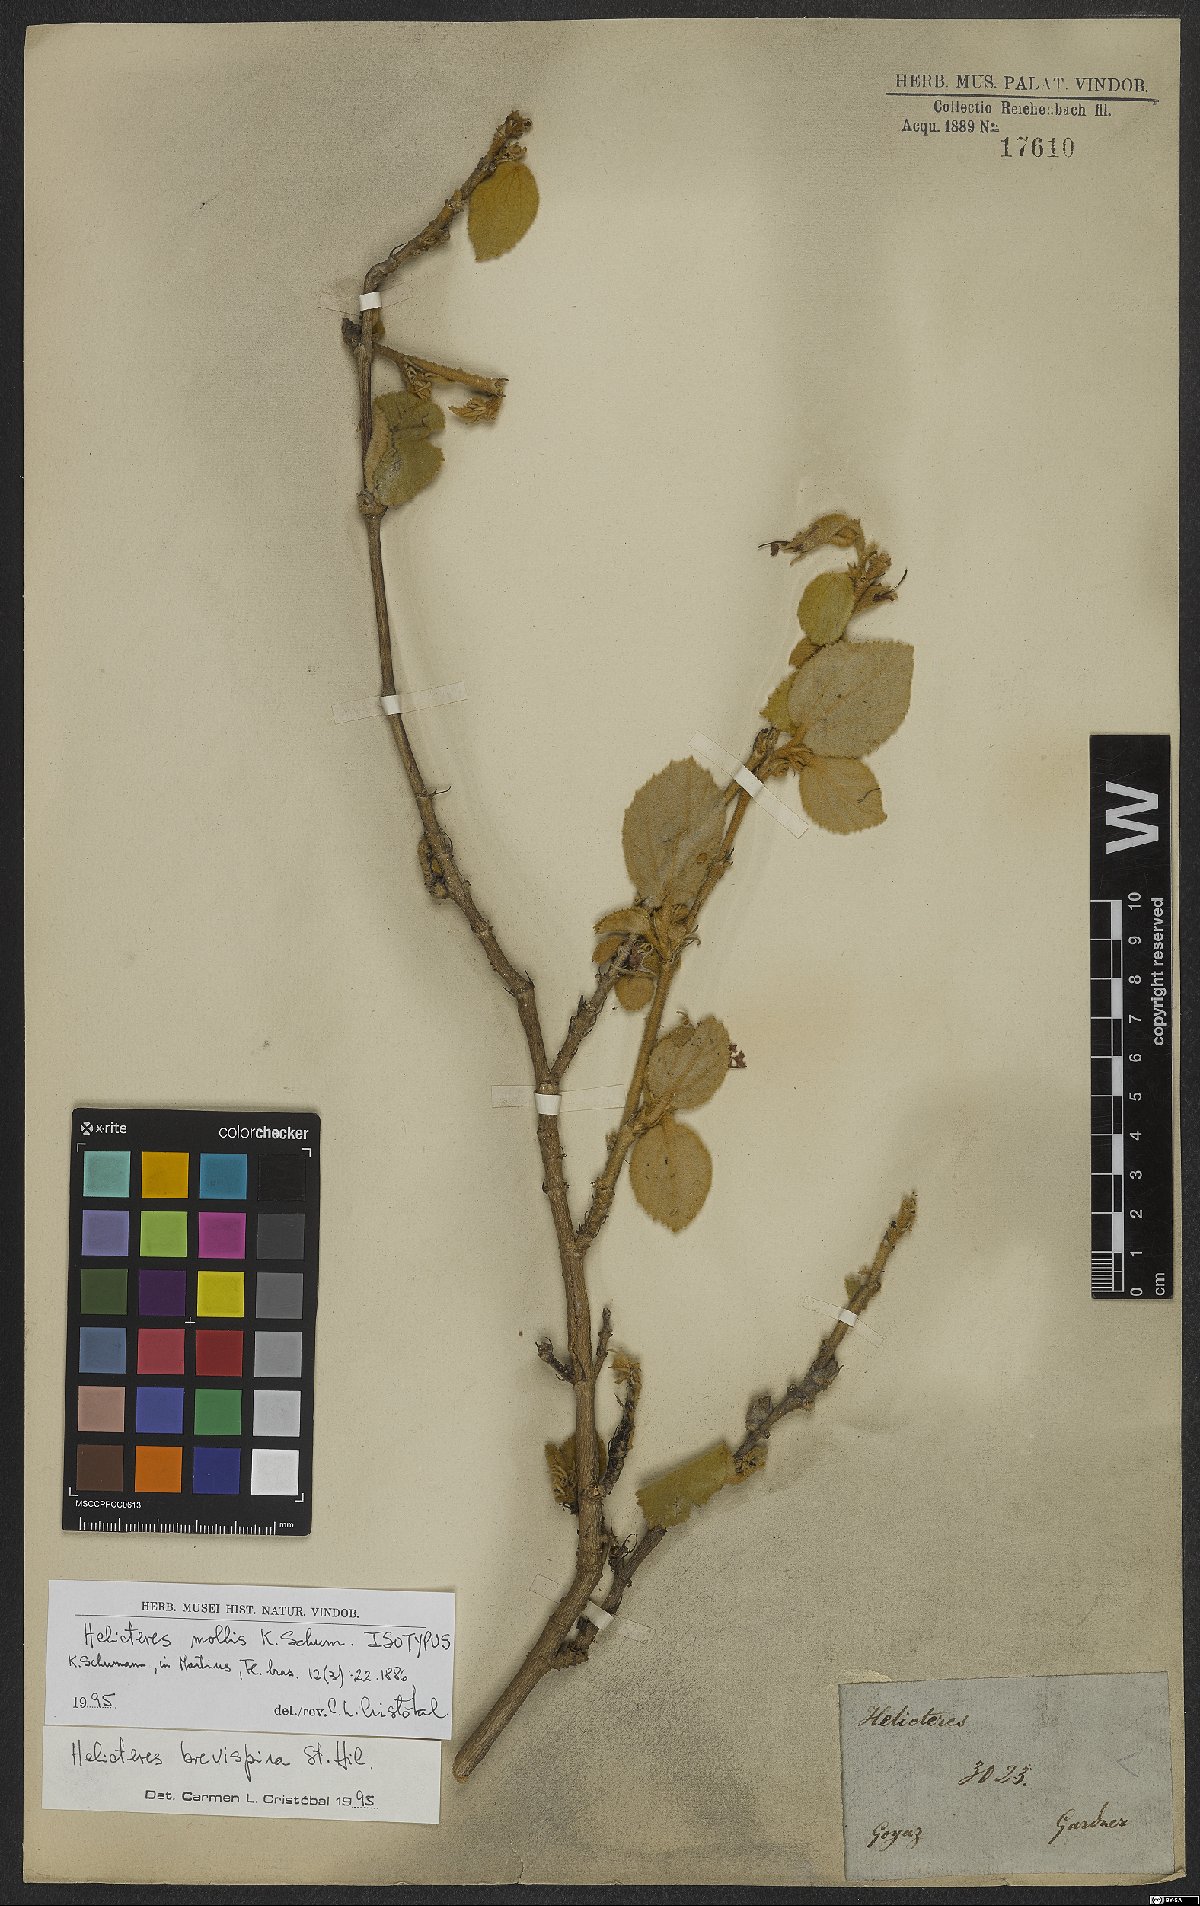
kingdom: Plantae
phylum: Tracheophyta
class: Magnoliopsida
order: Malvales
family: Malvaceae
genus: Helicteres
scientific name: Helicteres brevispira
